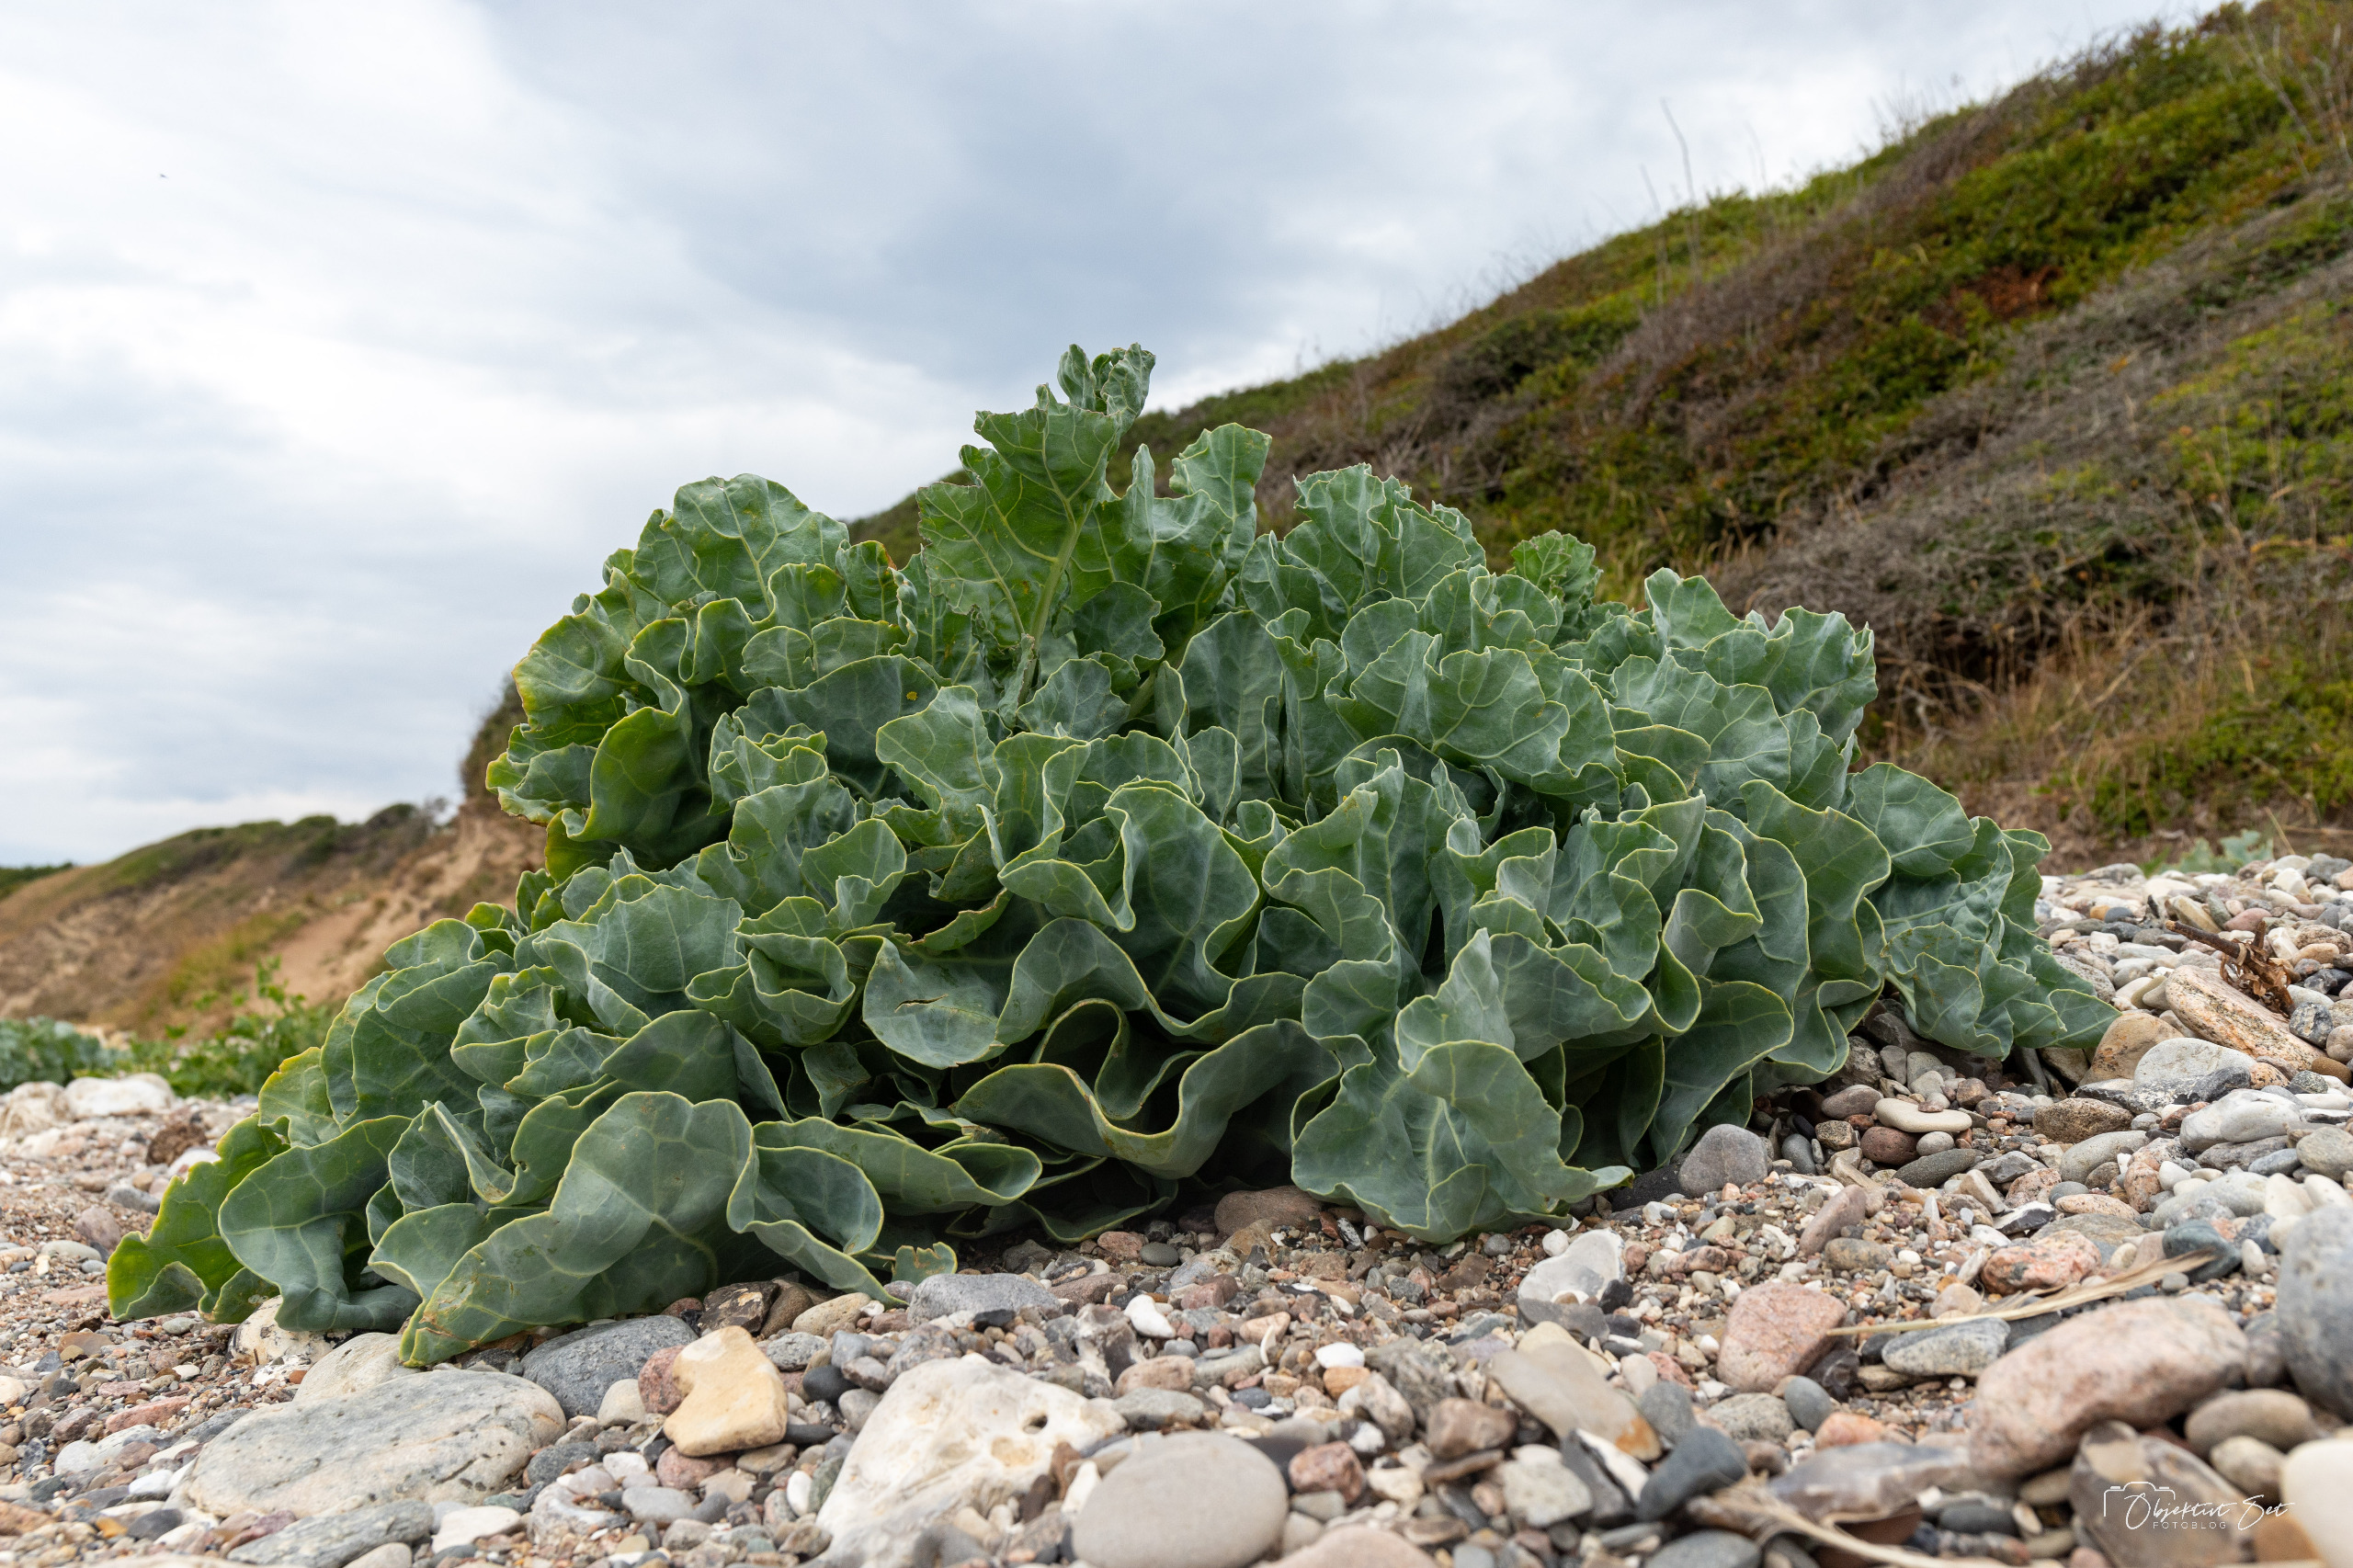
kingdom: Plantae
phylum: Tracheophyta
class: Magnoliopsida
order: Brassicales
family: Brassicaceae
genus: Crambe
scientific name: Crambe maritima
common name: Strandkål
